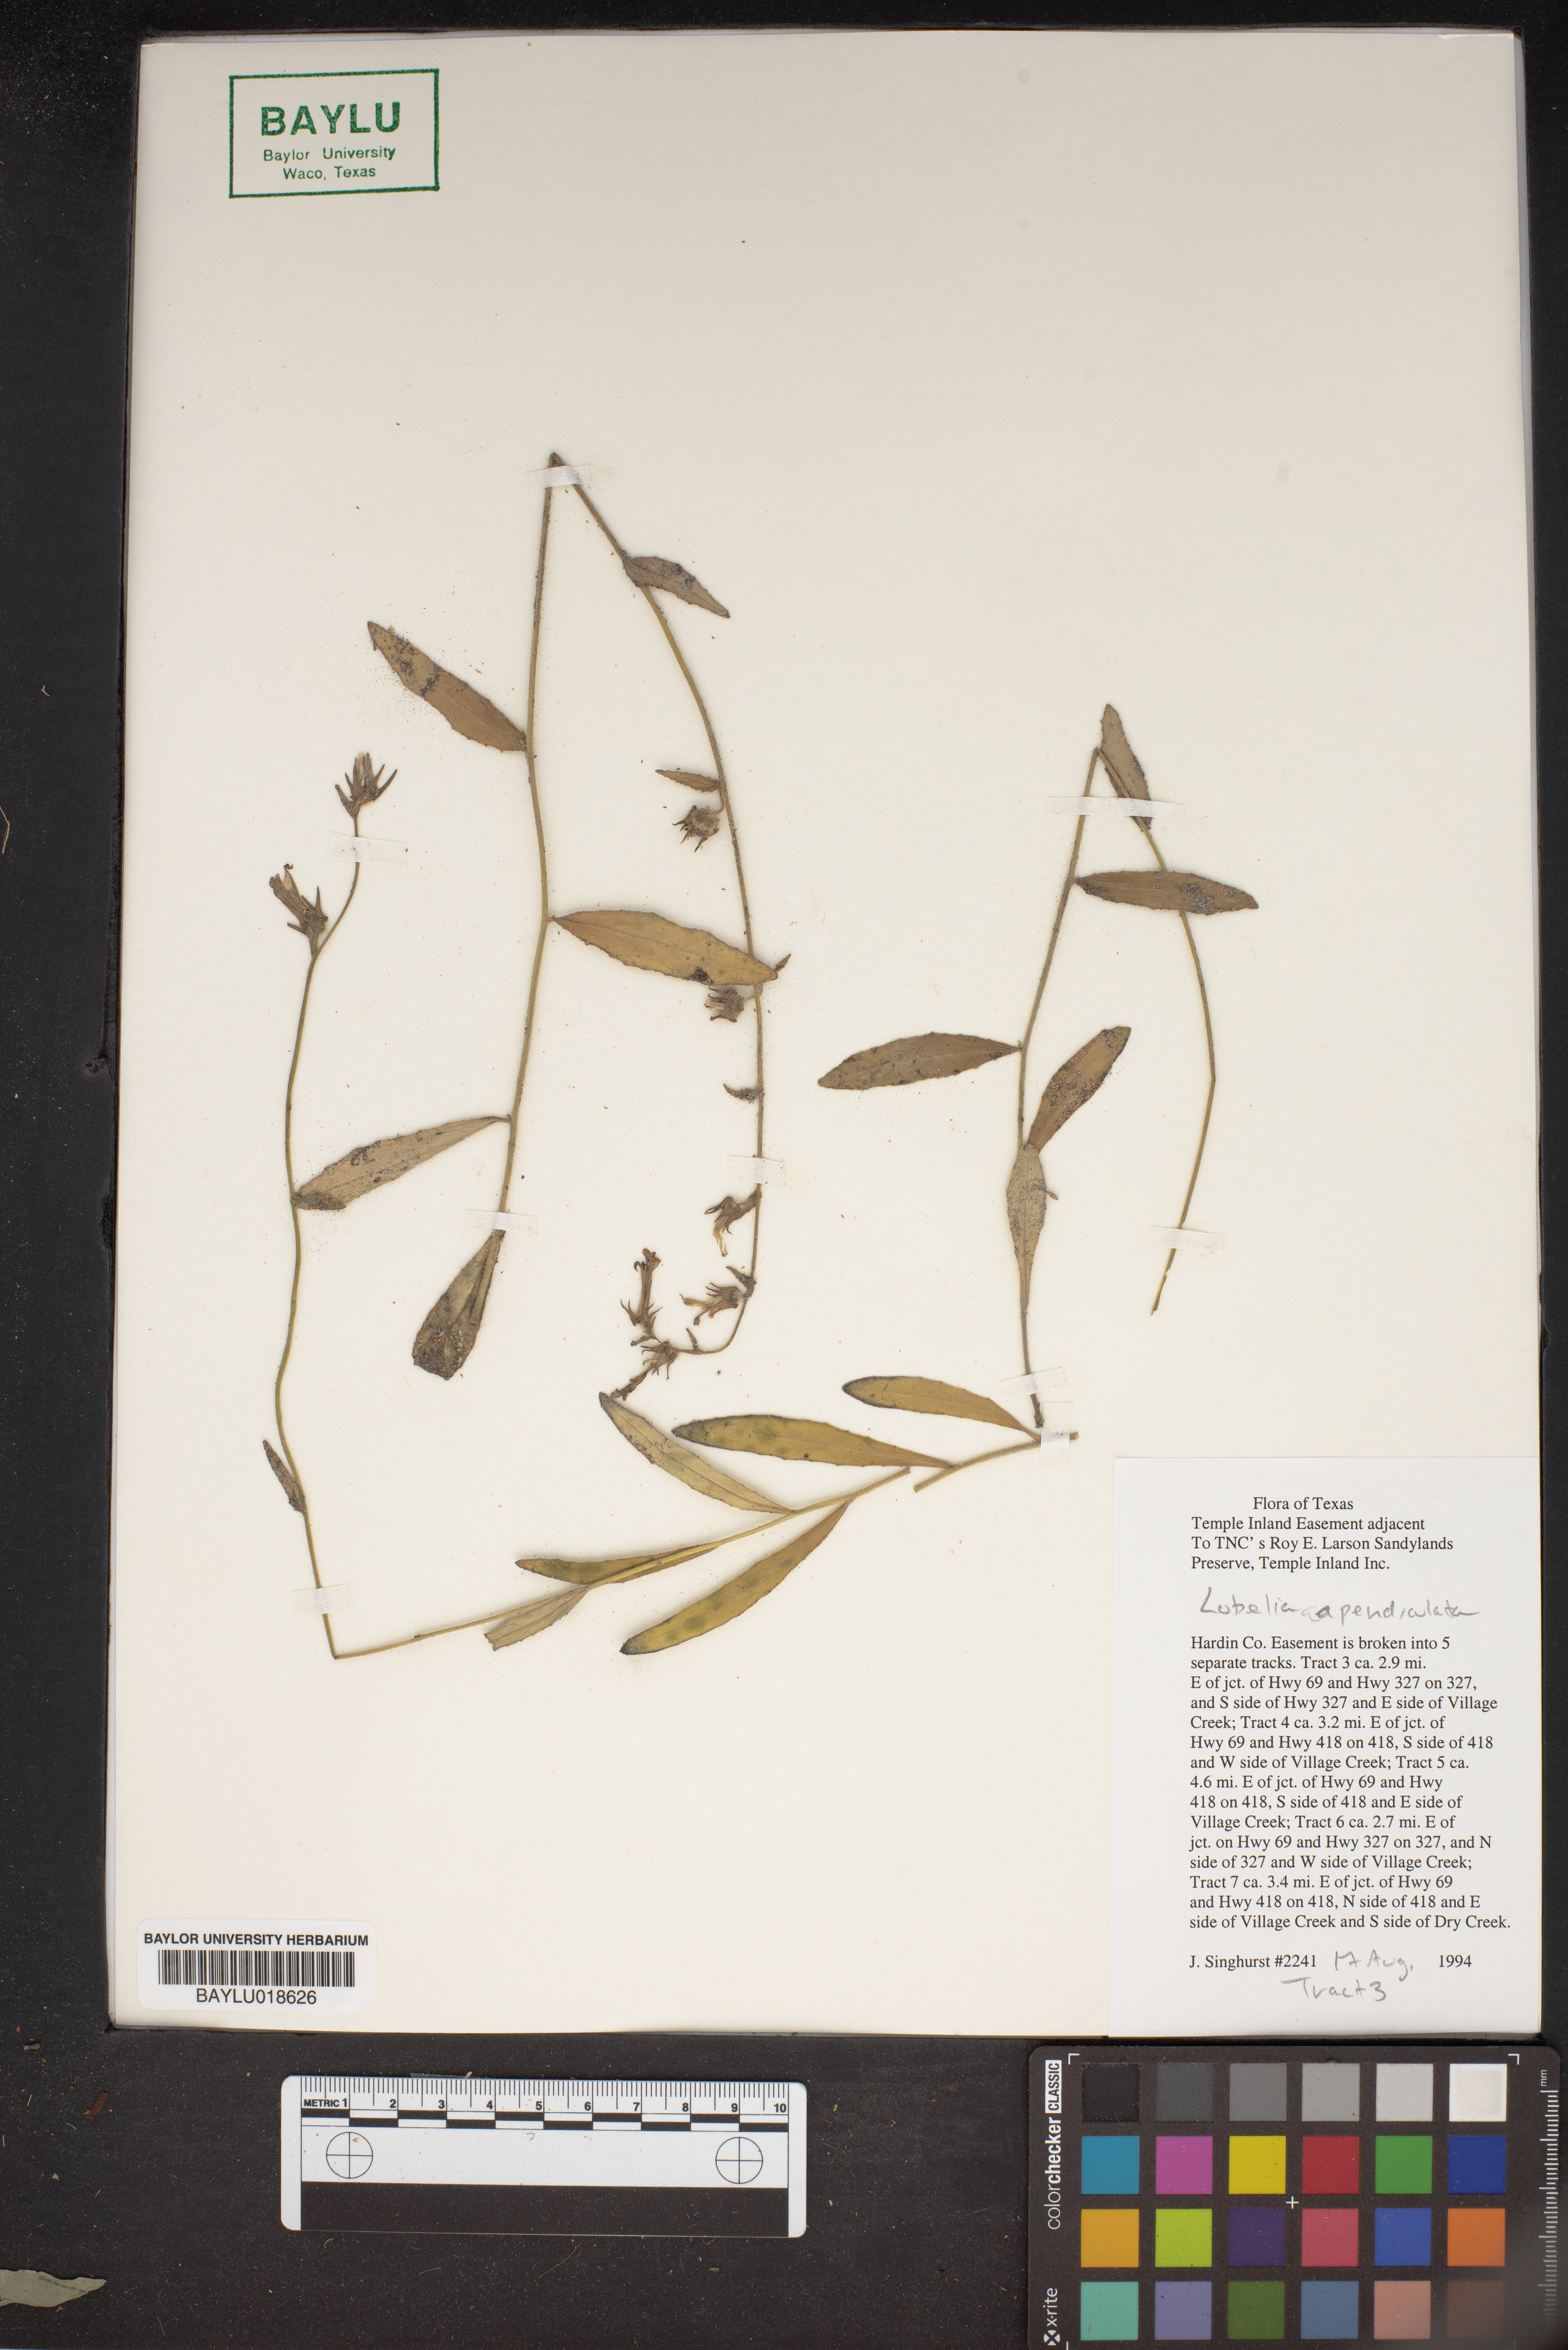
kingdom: Plantae
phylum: Tracheophyta
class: Magnoliopsida
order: Asterales
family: Campanulaceae
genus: Lobelia
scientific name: Lobelia appendiculata
